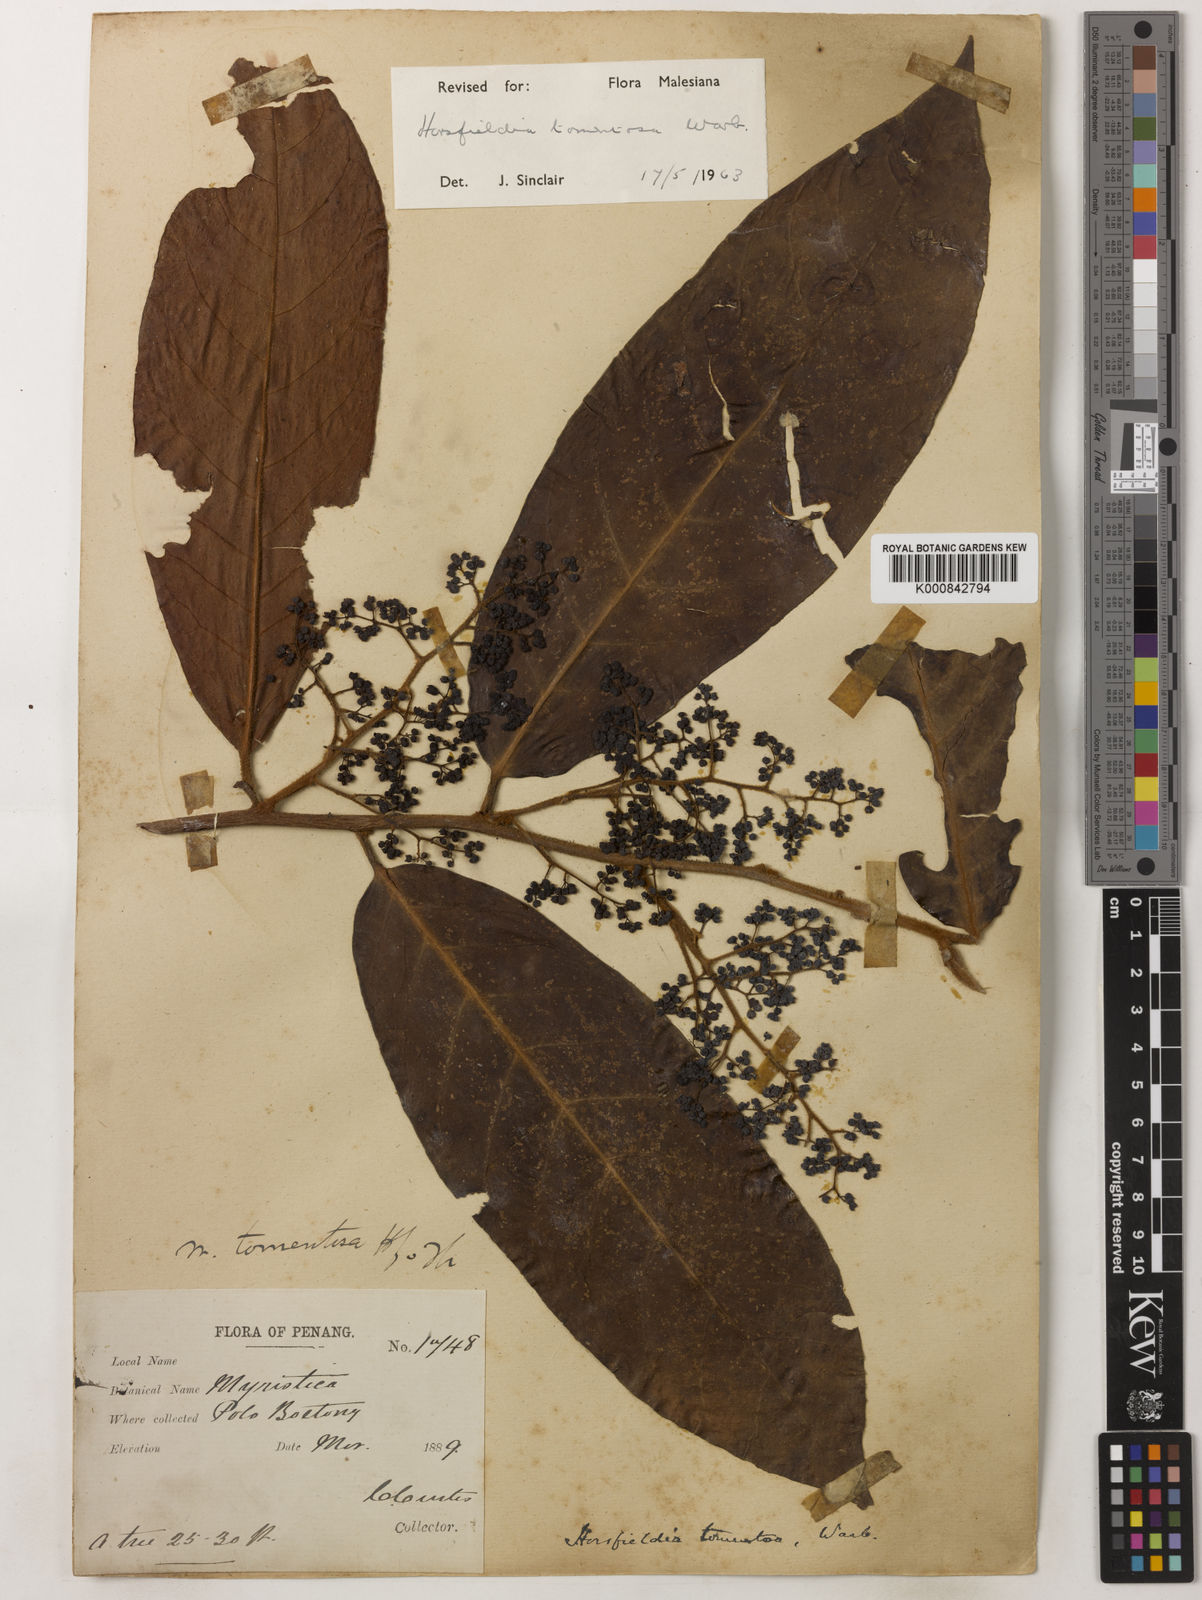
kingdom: Plantae
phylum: Tracheophyta
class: Magnoliopsida
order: Magnoliales
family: Myristicaceae
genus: Horsfieldia
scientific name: Horsfieldia tomentosa
